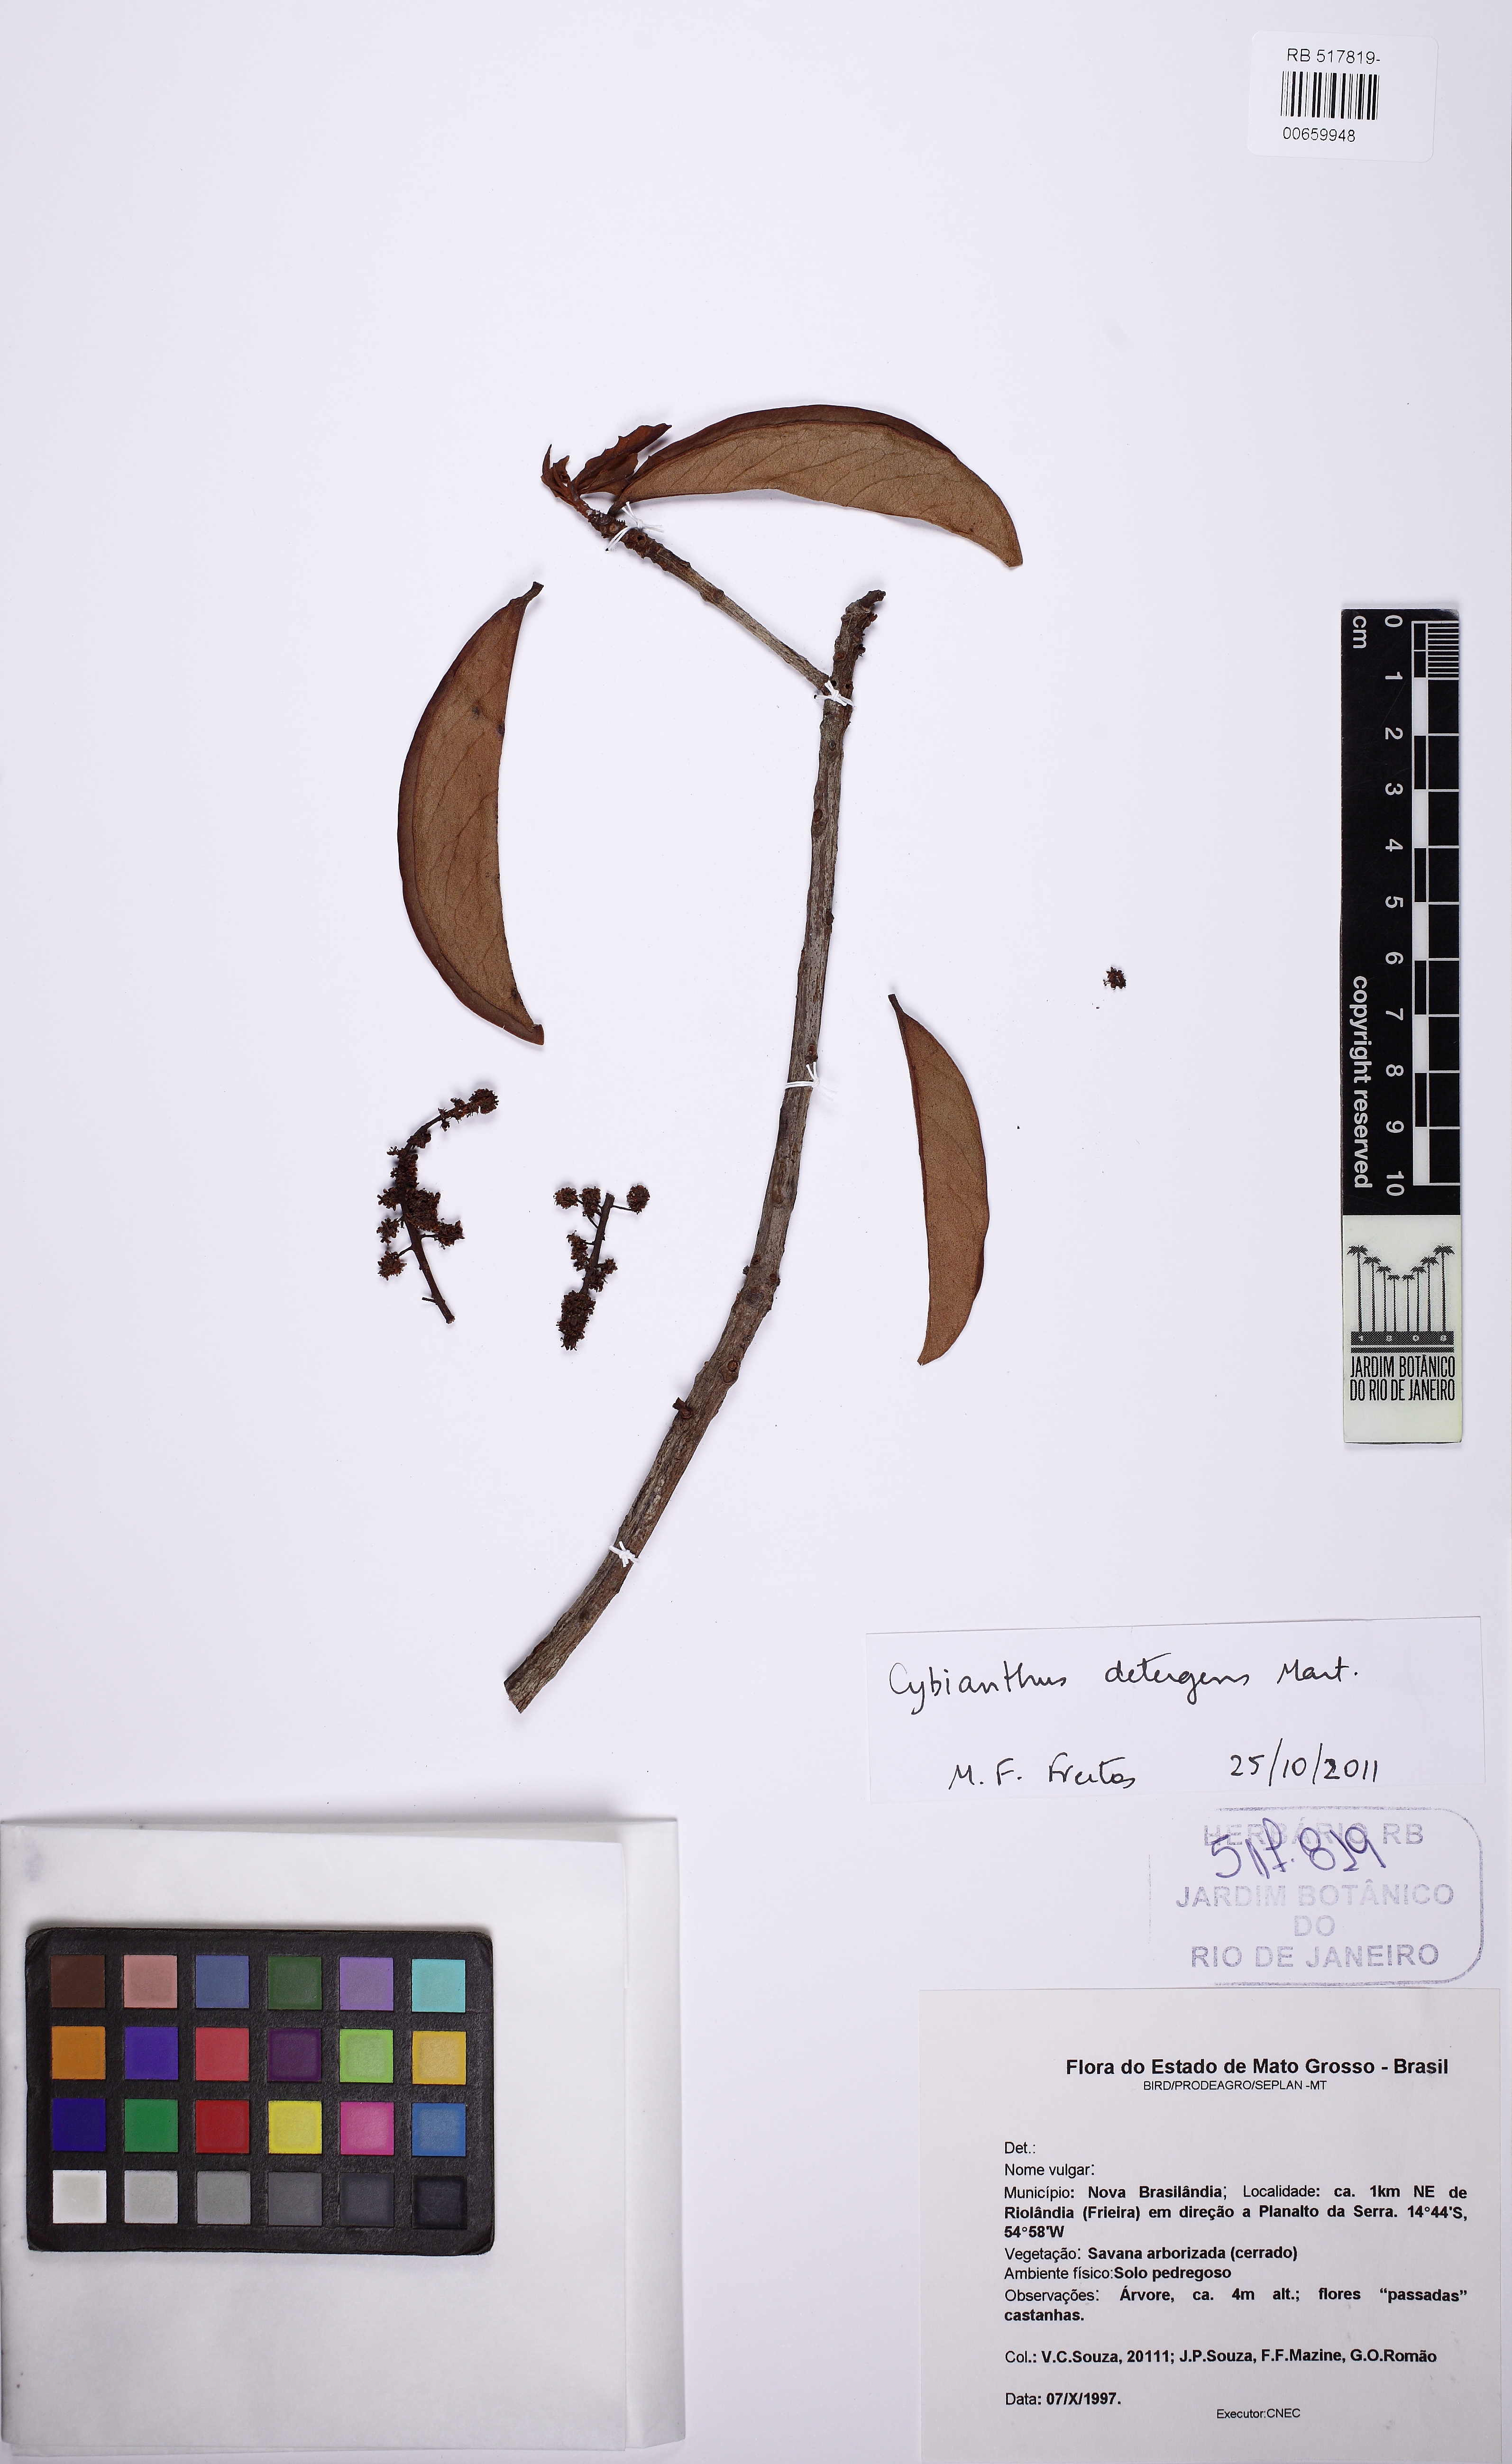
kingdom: Plantae
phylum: Tracheophyta
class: Magnoliopsida
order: Ericales
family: Primulaceae
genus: Cybianthus
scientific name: Cybianthus detergens
